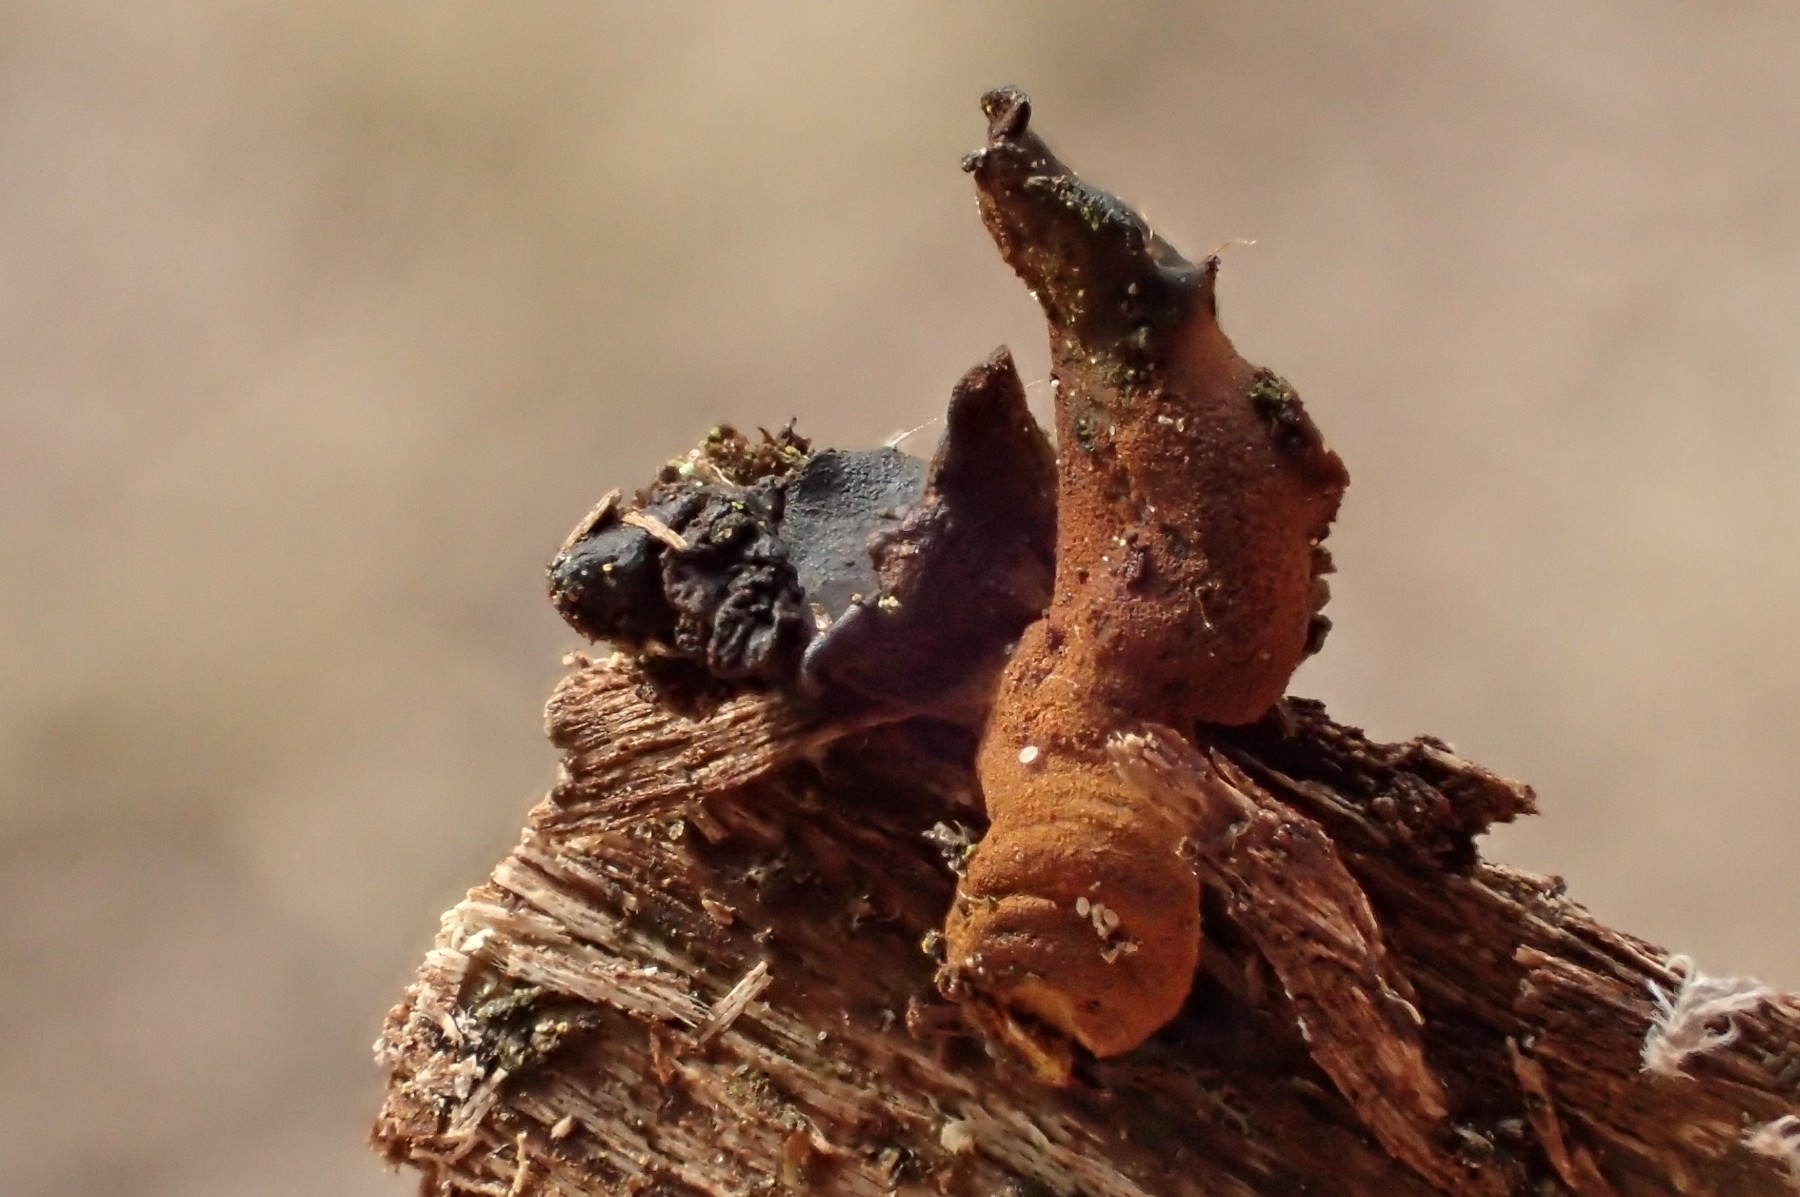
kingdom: Fungi
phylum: Ascomycota
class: Leotiomycetes
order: Helotiales
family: Cordieritidaceae
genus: Ionomidotis
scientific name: Ionomidotis fulvotingens
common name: rødmende tjæreskive
